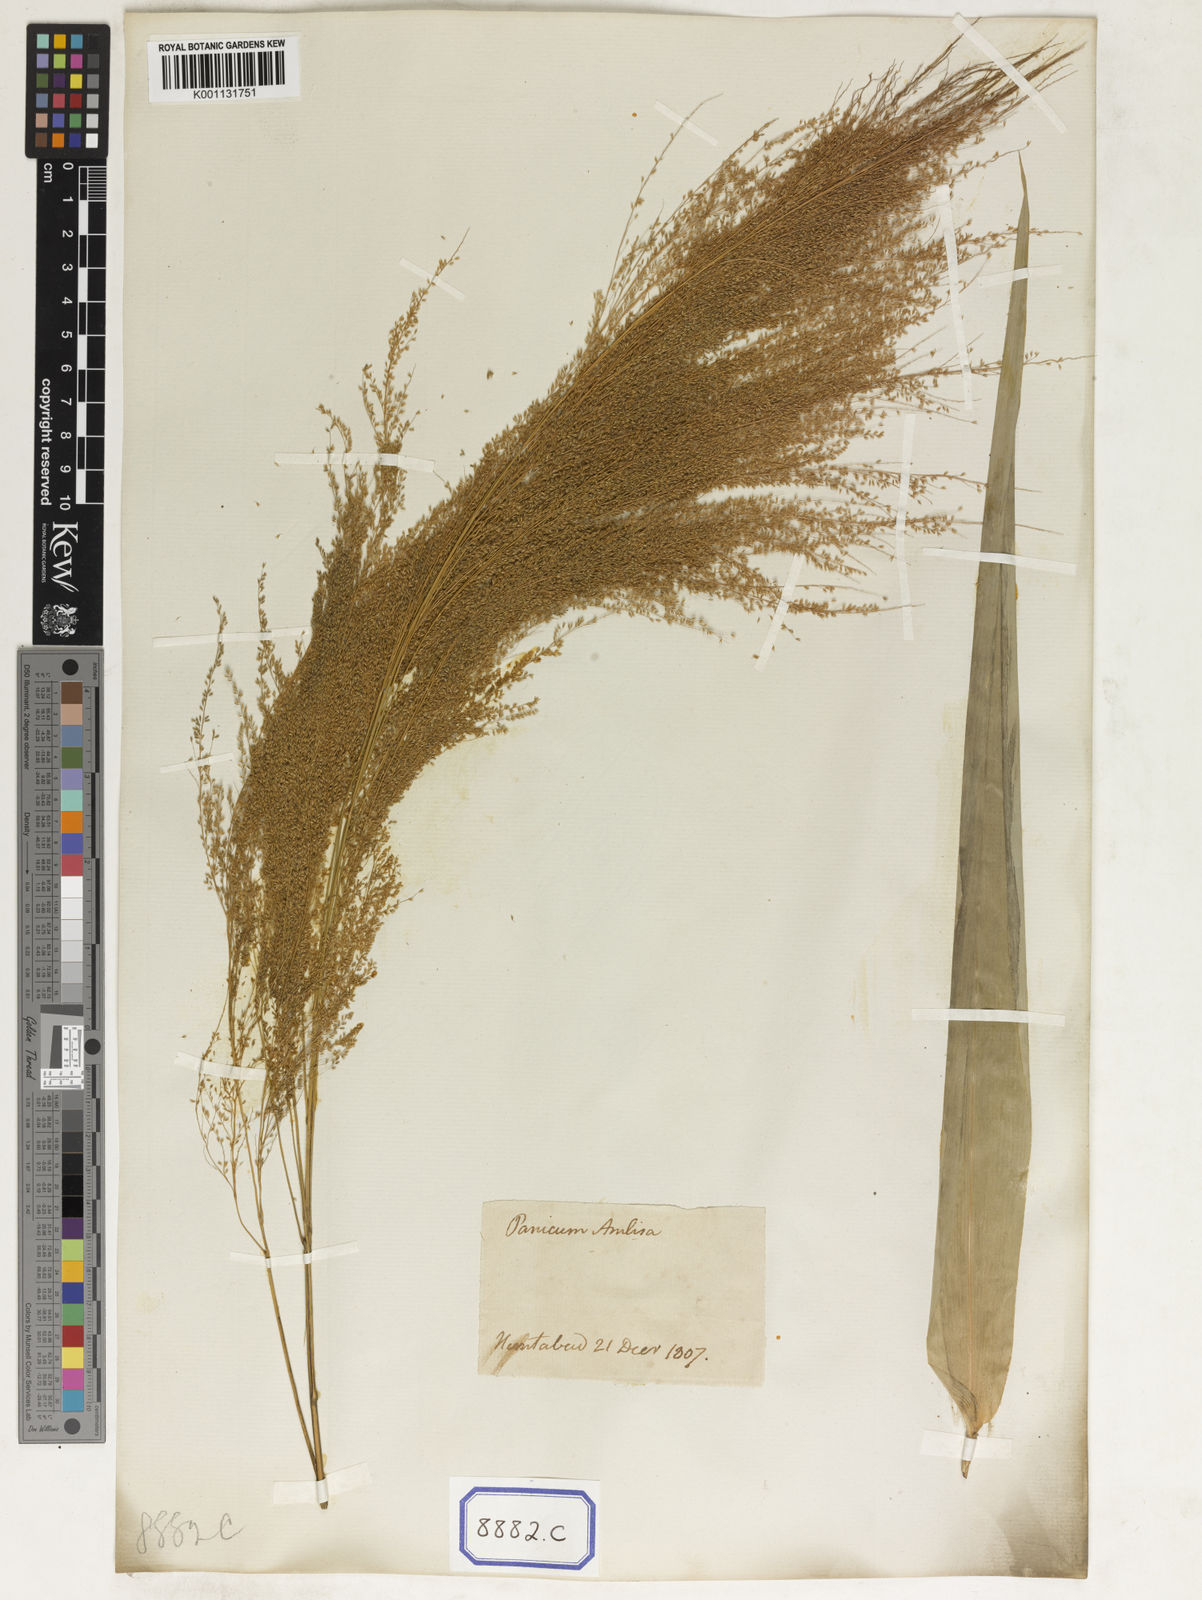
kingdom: Plantae
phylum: Tracheophyta
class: Liliopsida
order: Poales
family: Poaceae
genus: Thysanolaena
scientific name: Thysanolaena latifolia
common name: Tiger grass
